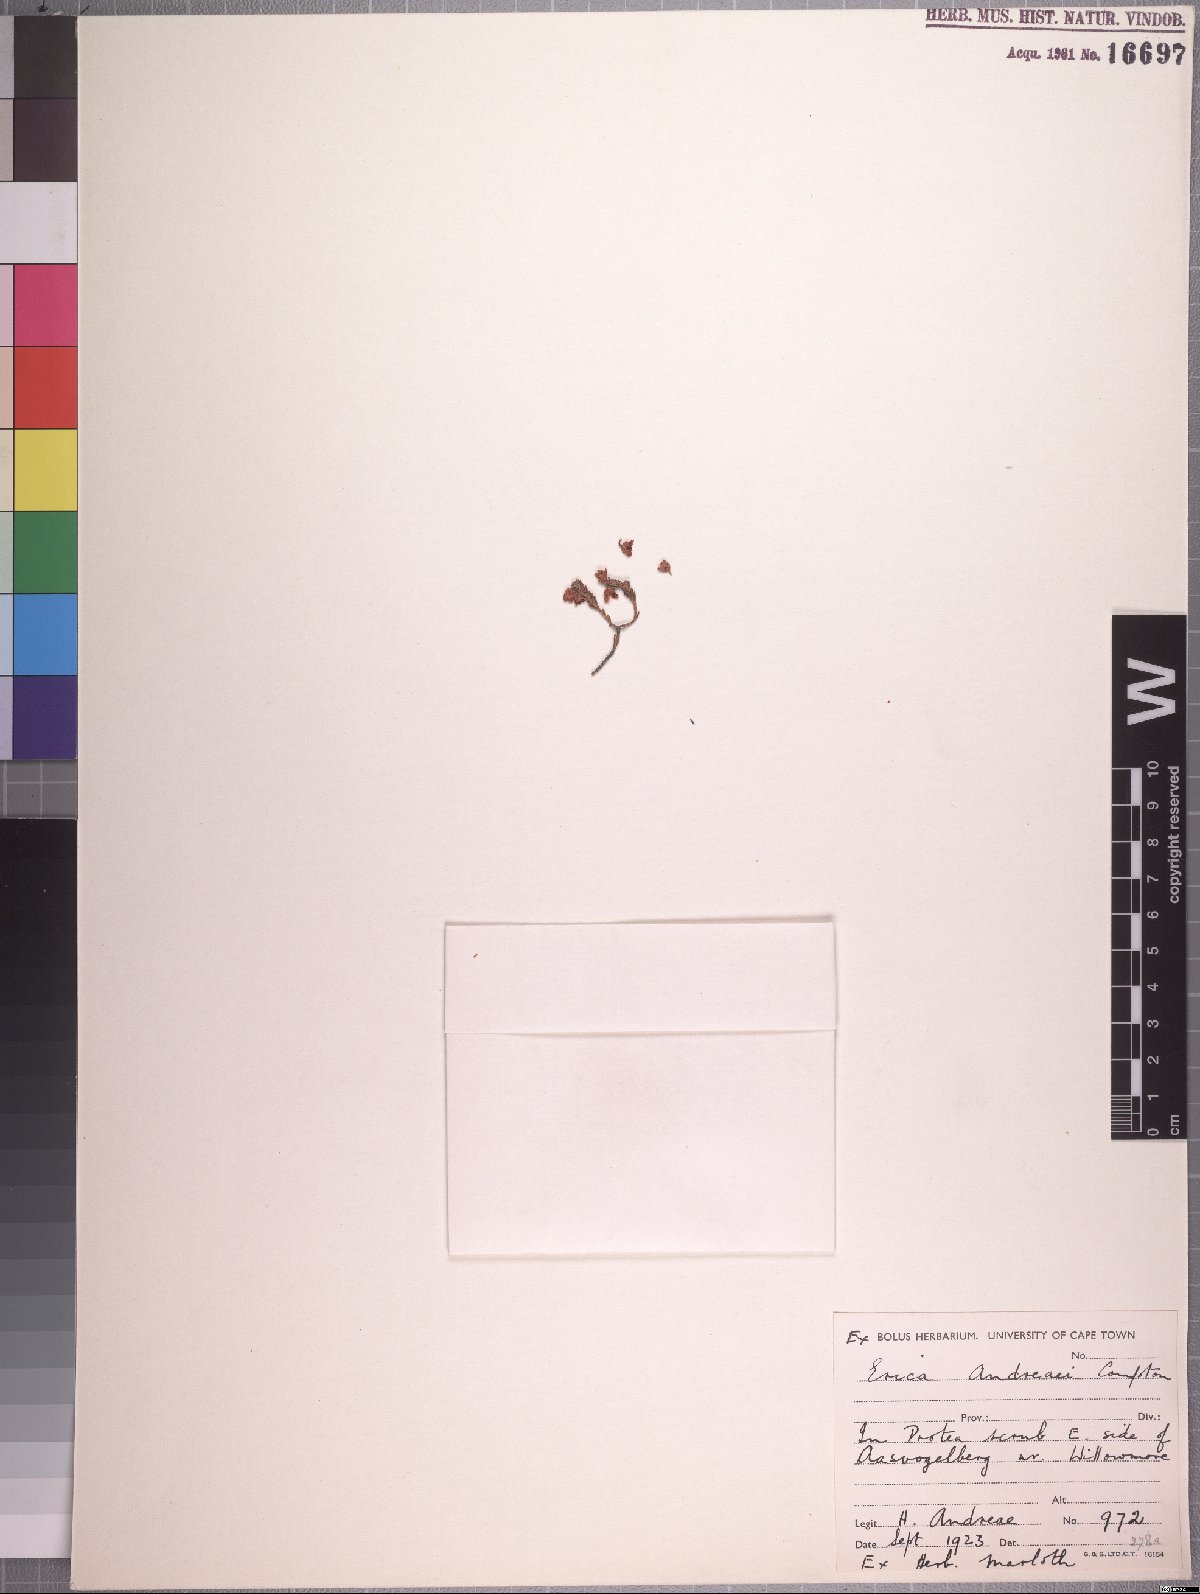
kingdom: Plantae
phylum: Tracheophyta
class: Magnoliopsida
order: Ericales
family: Ericaceae
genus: Erica
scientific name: Erica andreaei
